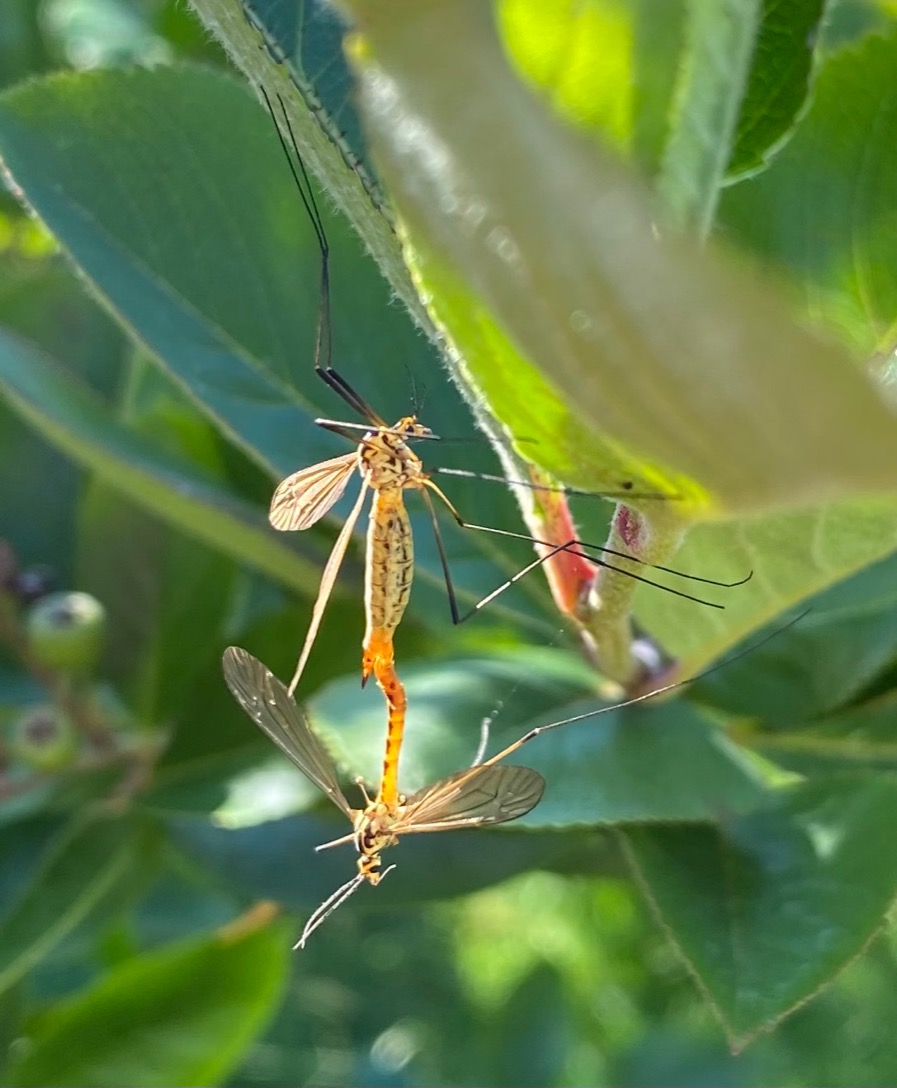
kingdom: Animalia
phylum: Arthropoda
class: Insecta
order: Diptera
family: Tipulidae
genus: Nephrotoma
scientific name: Nephrotoma flavescens
